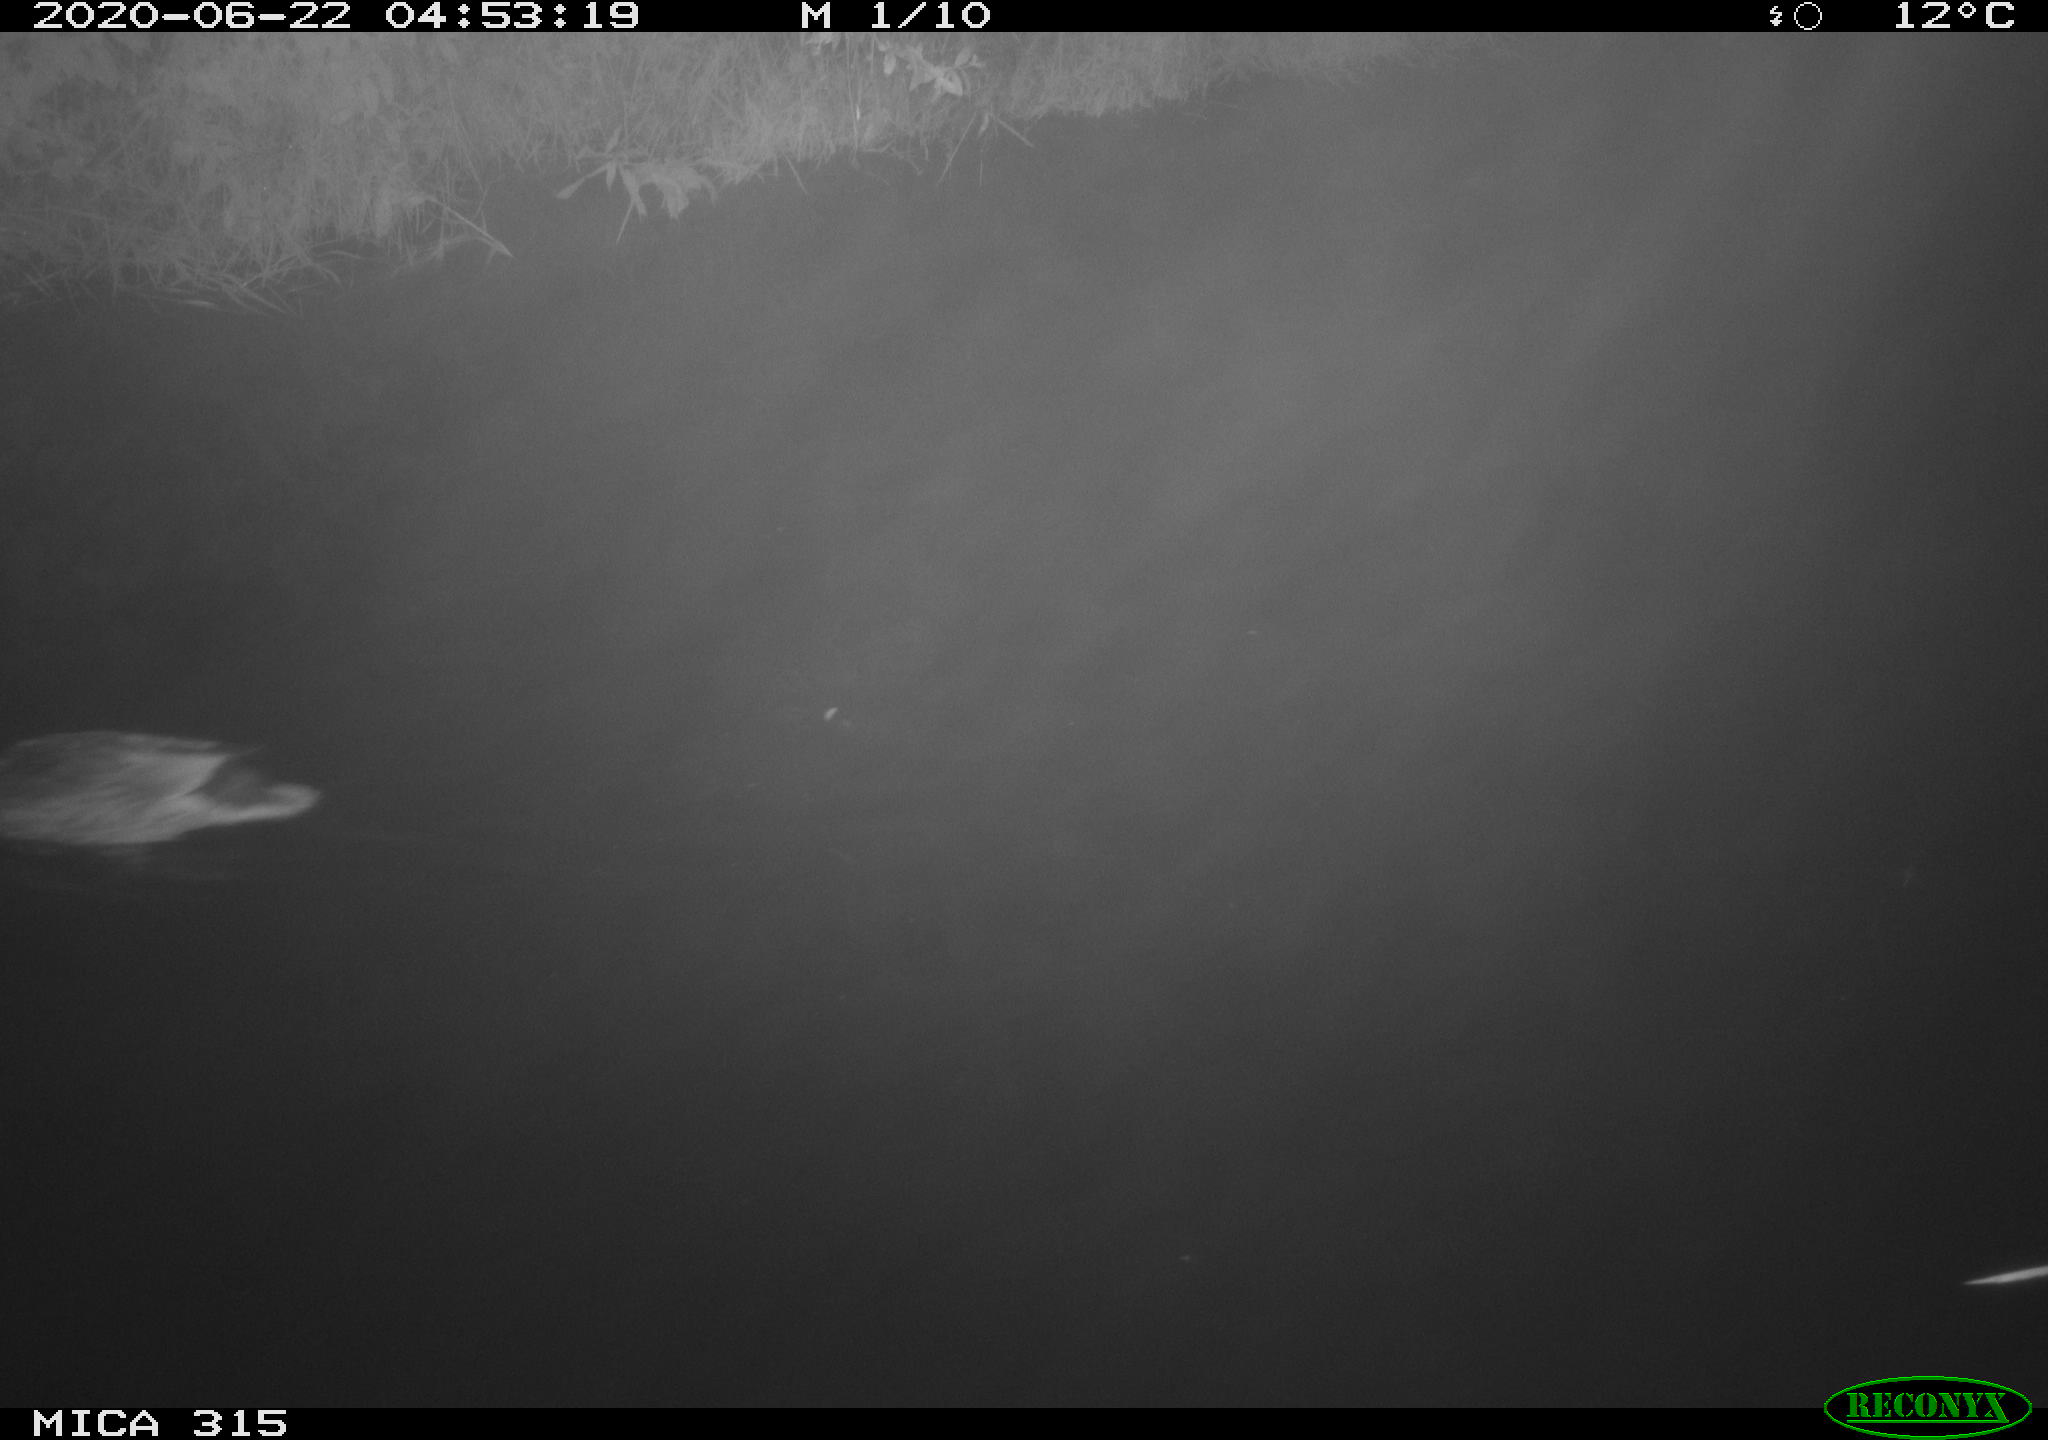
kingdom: Animalia
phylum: Chordata
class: Aves
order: Anseriformes
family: Anatidae
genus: Anas
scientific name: Anas platyrhynchos
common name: Mallard
